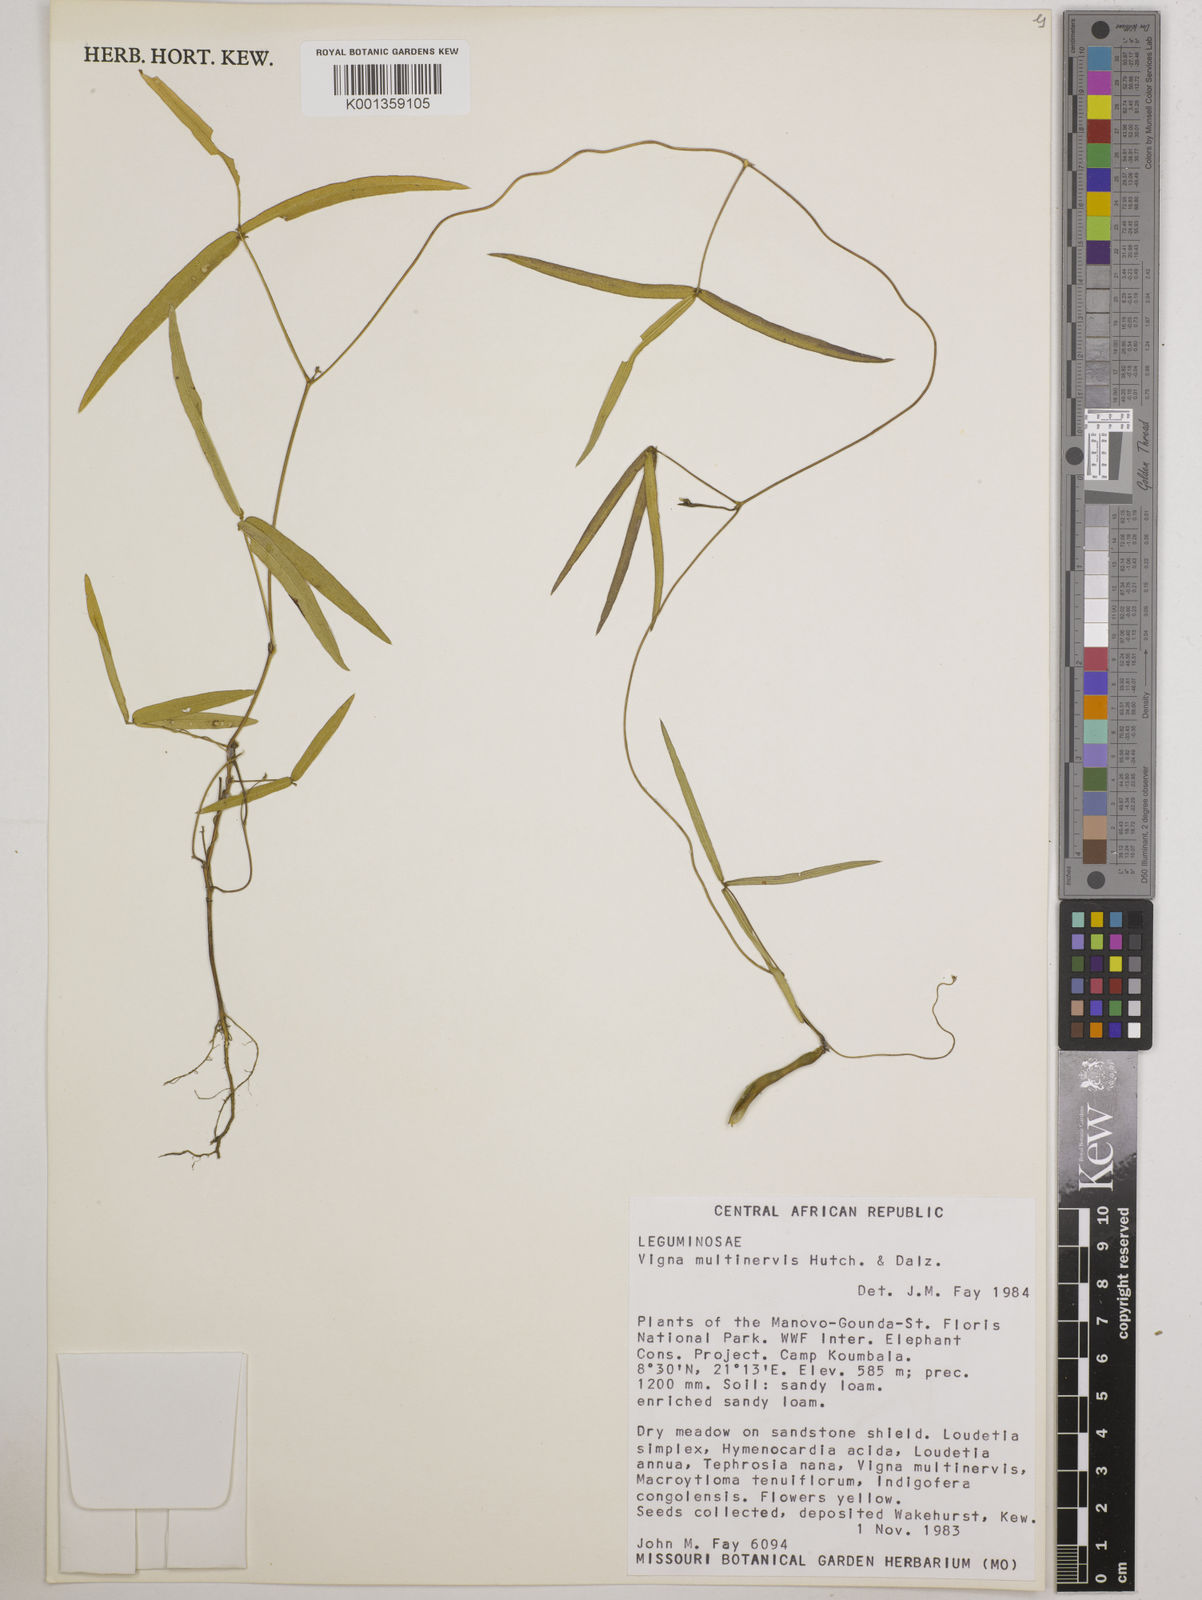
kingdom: Plantae
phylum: Tracheophyta
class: Magnoliopsida
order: Fabales
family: Fabaceae
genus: Vigna
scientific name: Vigna multinervis
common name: Fula-pulaar
